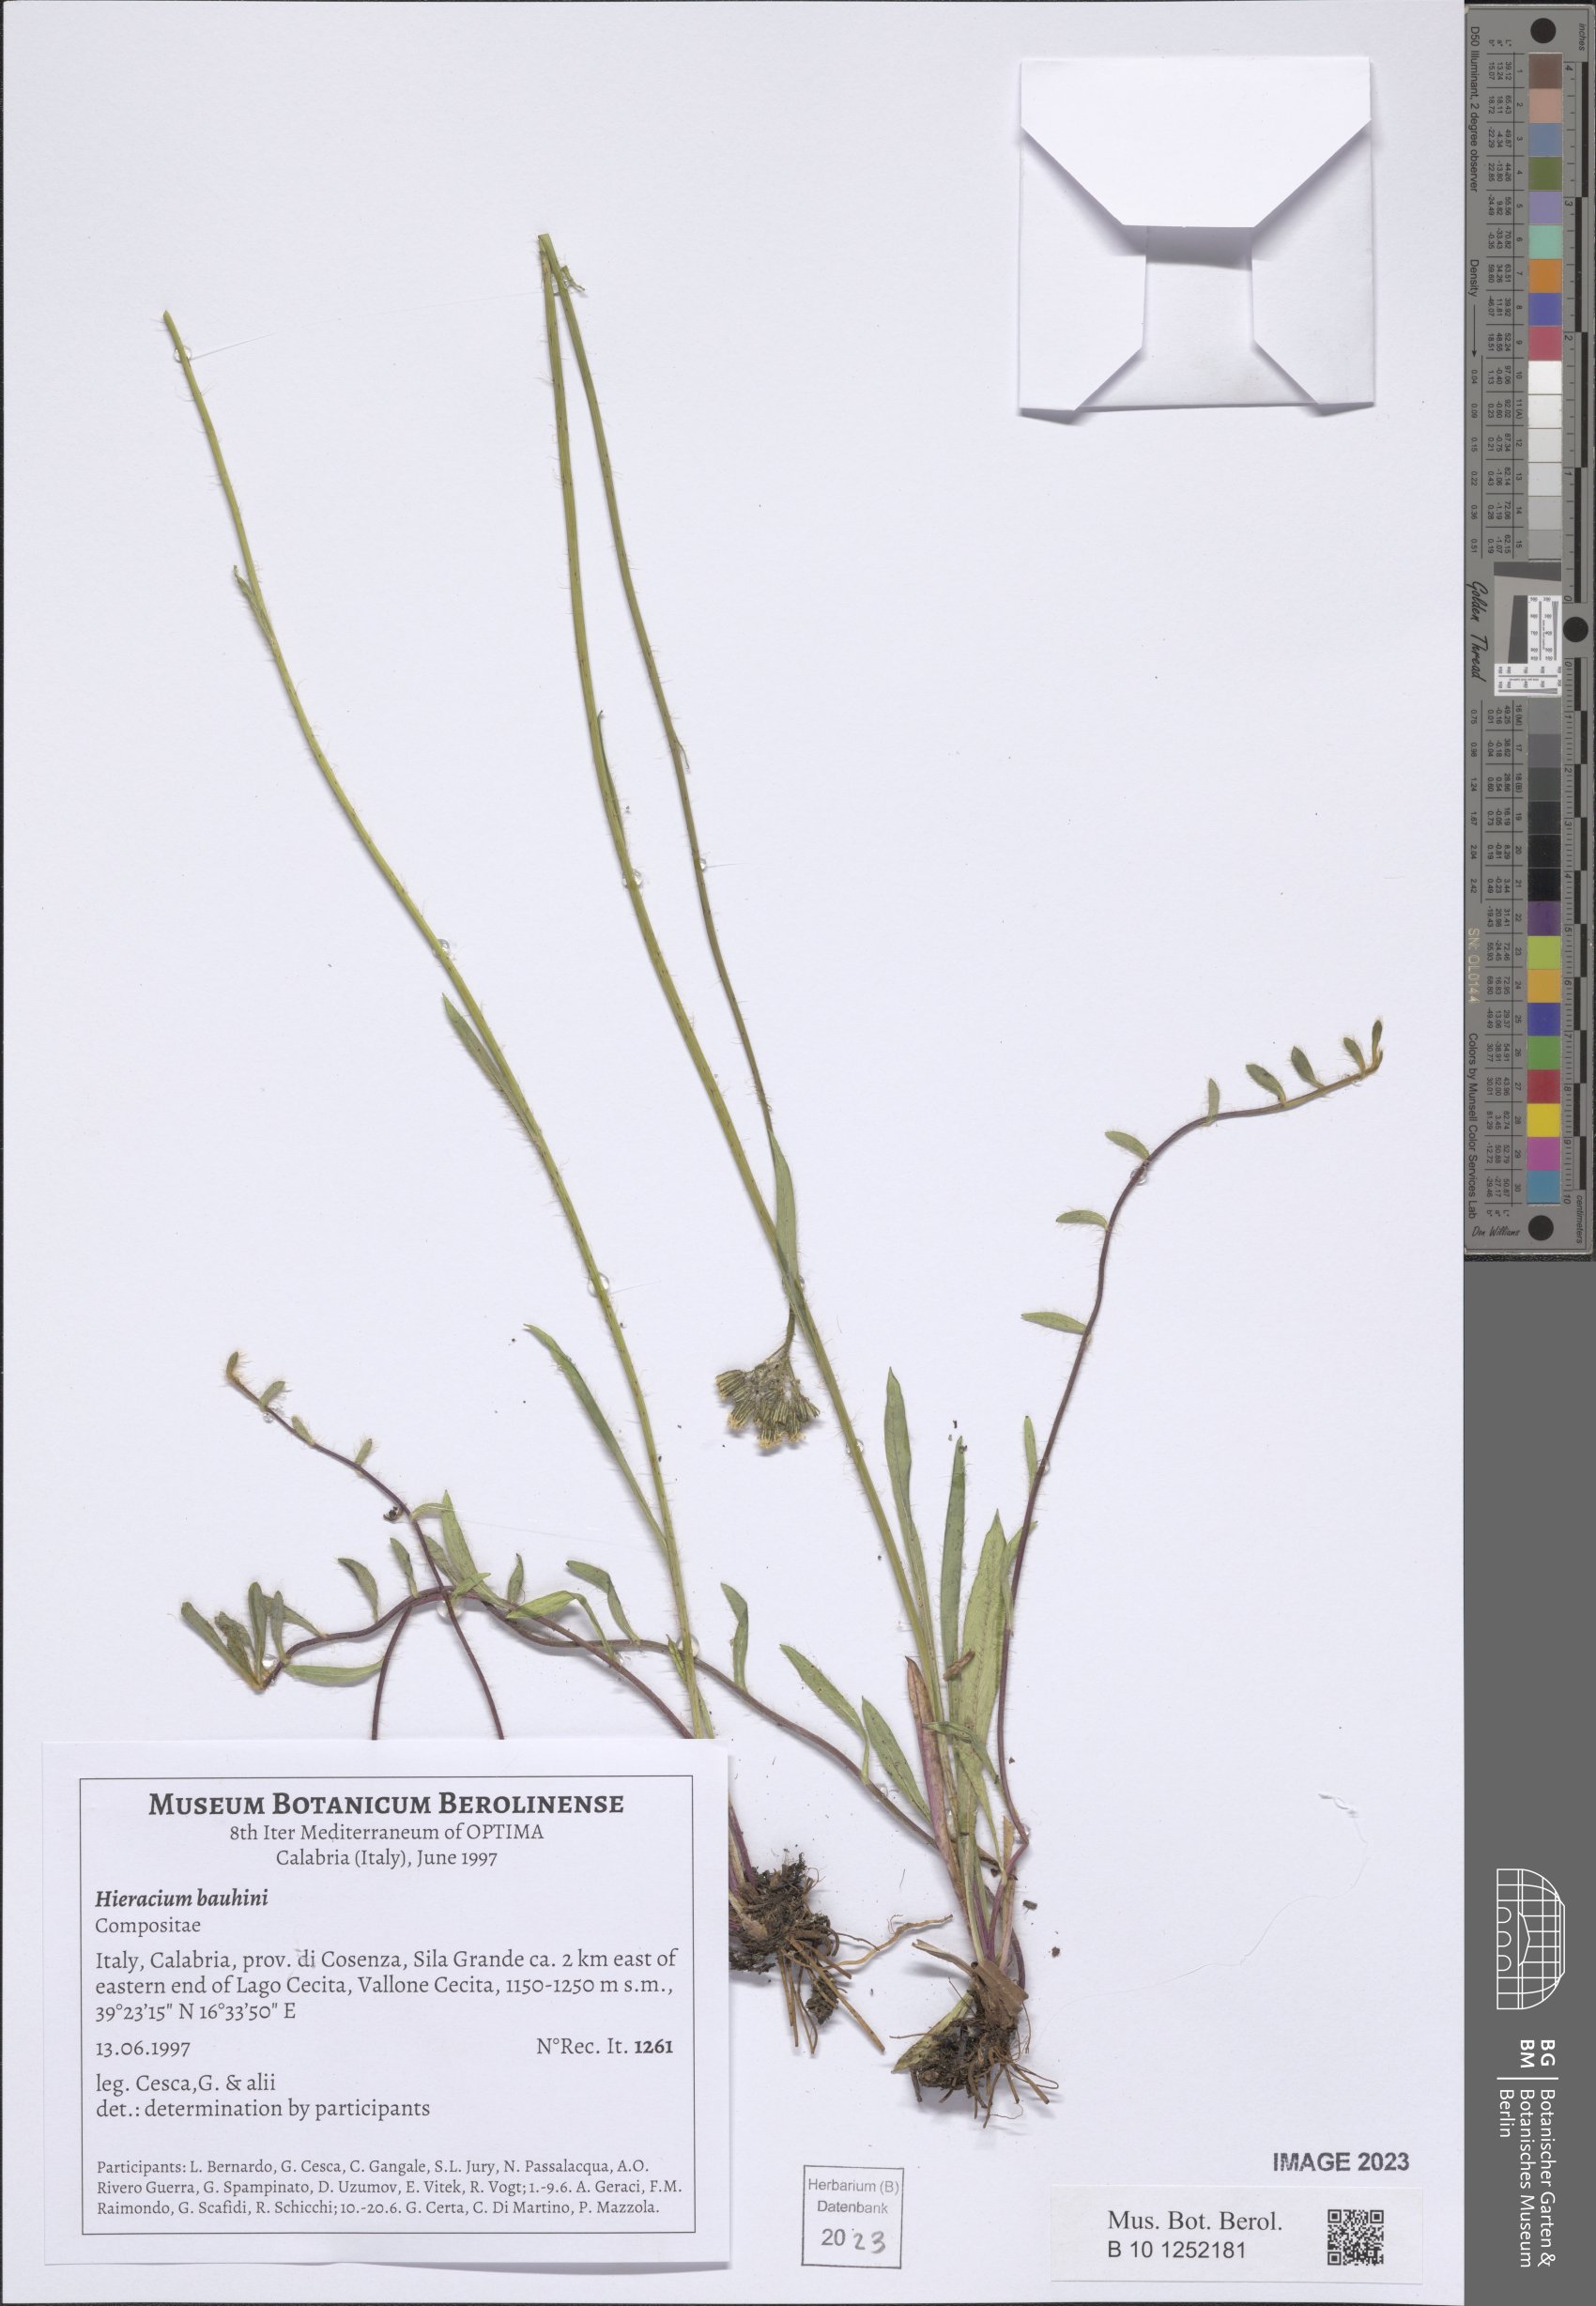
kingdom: Plantae
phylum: Tracheophyta
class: Magnoliopsida
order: Asterales
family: Asteraceae
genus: Pilosella
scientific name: Pilosella bauhini
